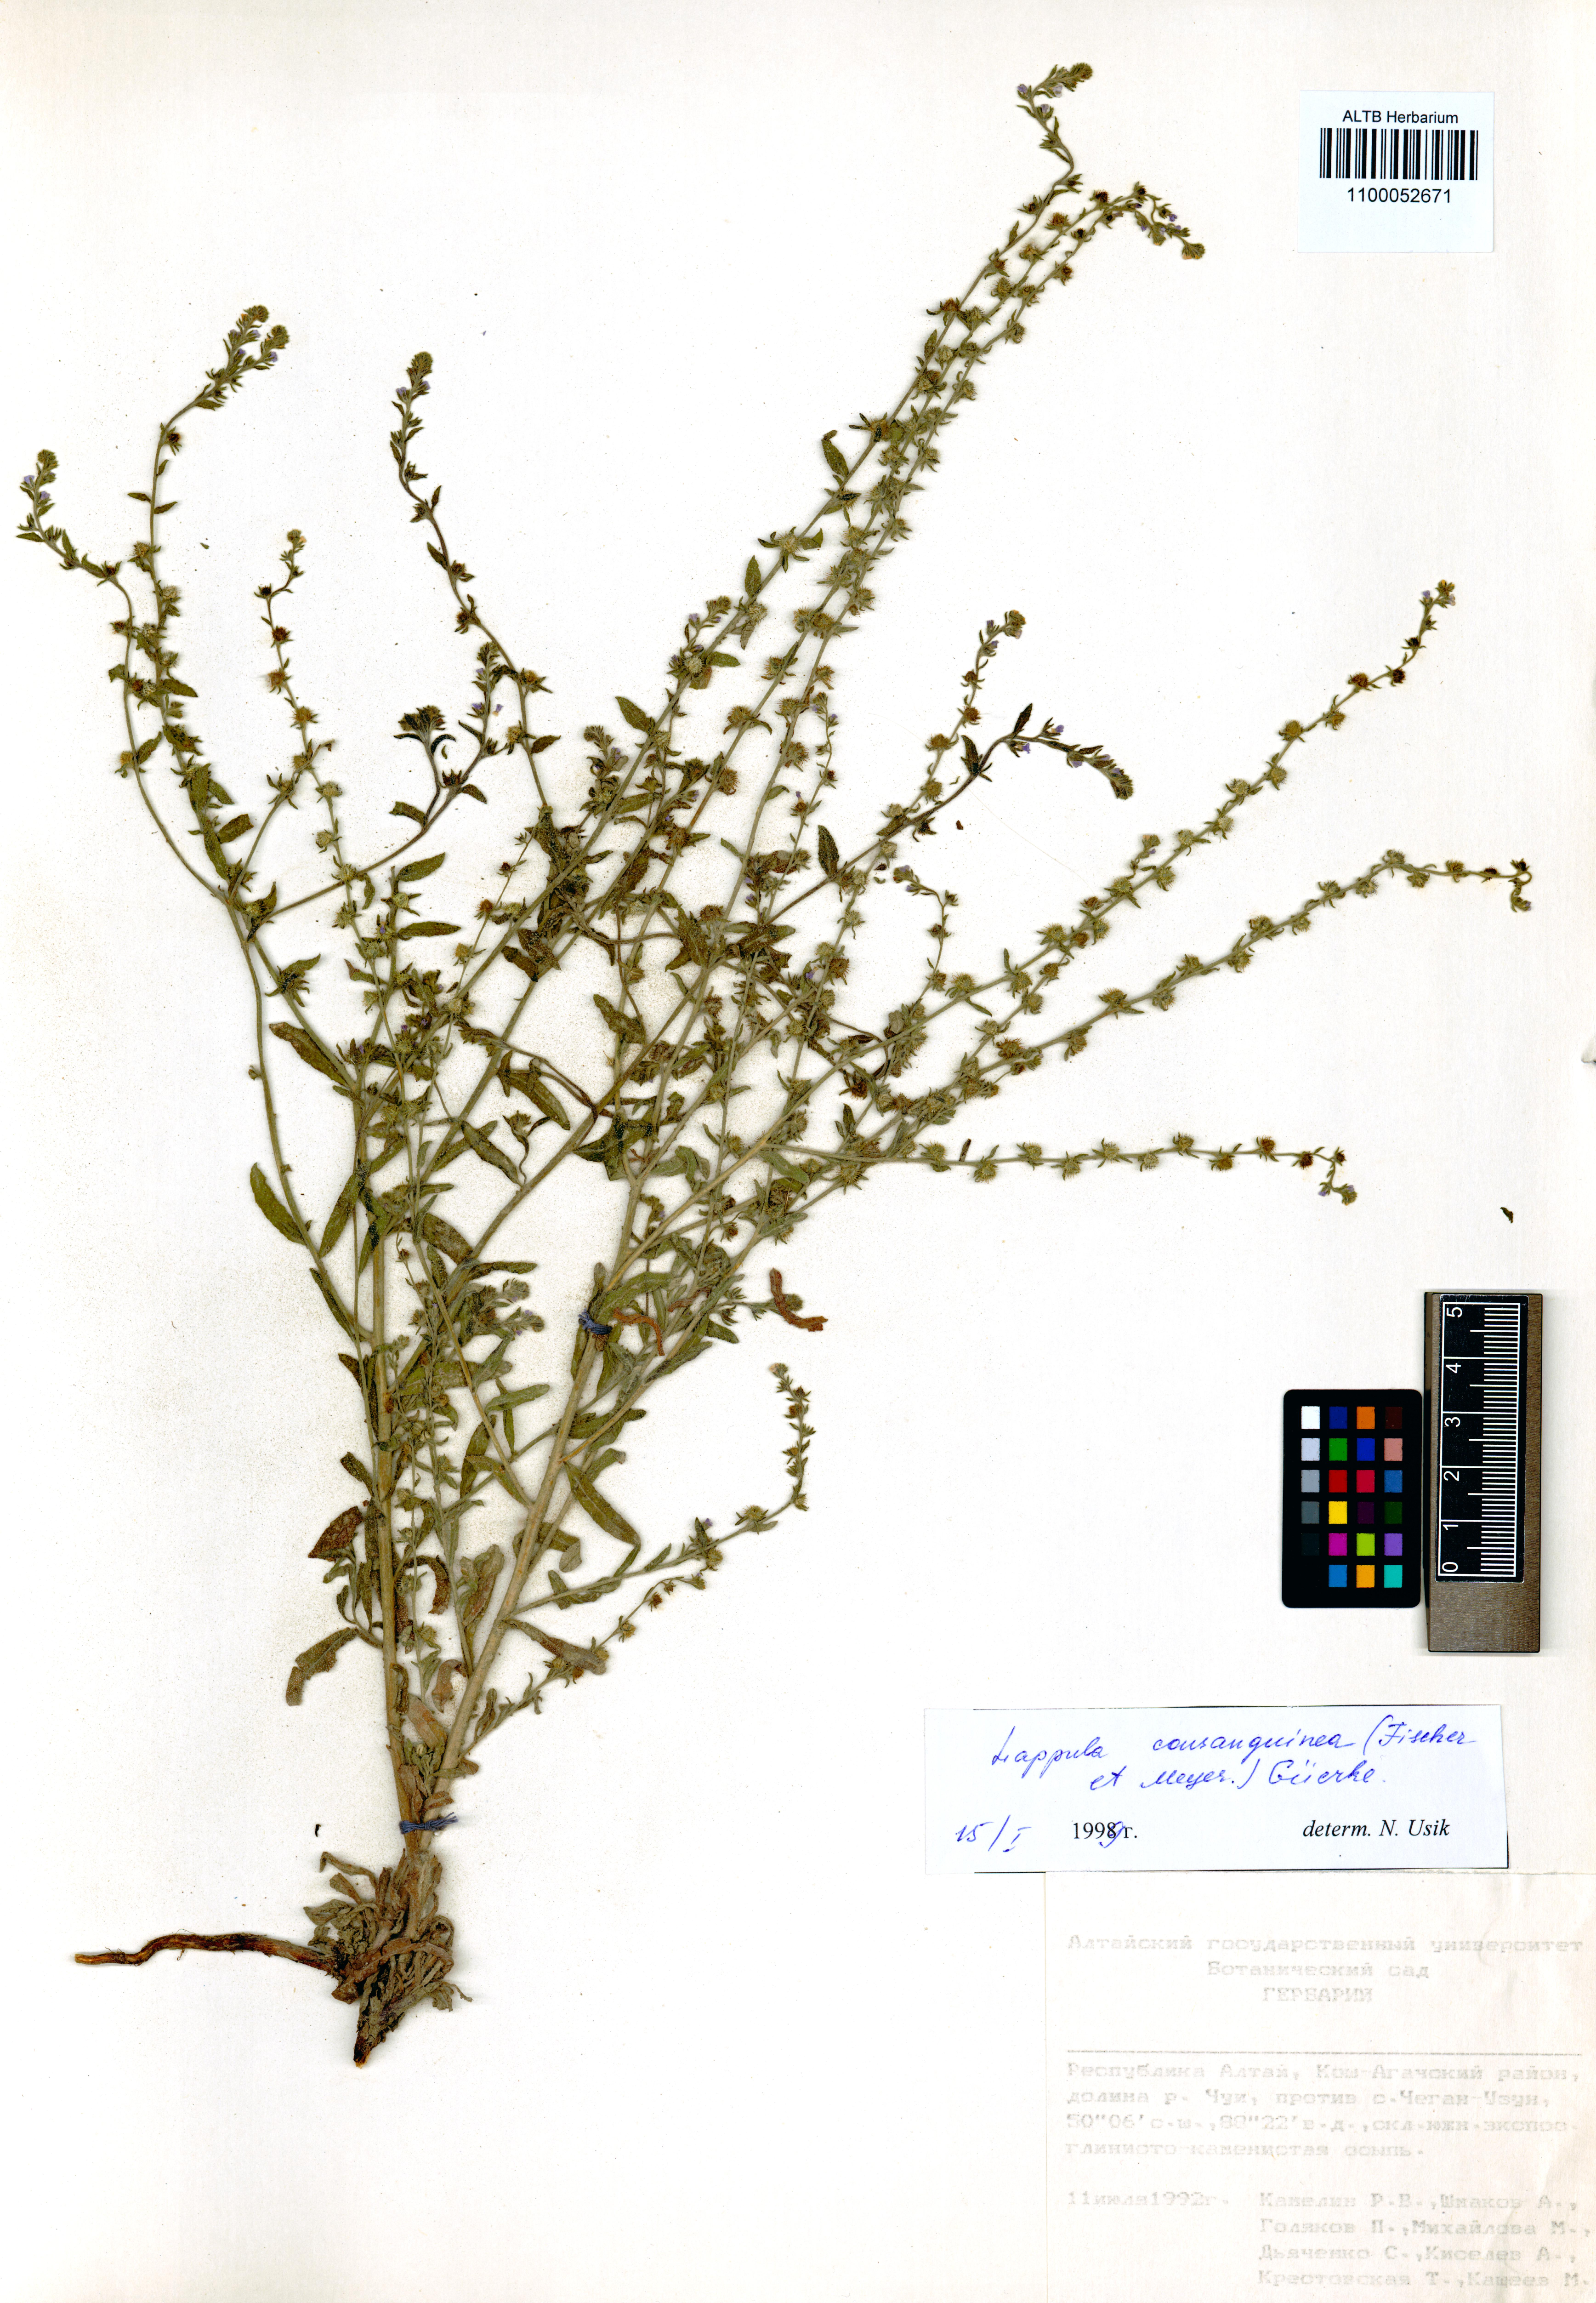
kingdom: Plantae
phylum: Tracheophyta
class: Magnoliopsida
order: Boraginales
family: Boraginaceae
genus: Lappula
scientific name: Lappula squarrosa
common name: European stickseed
